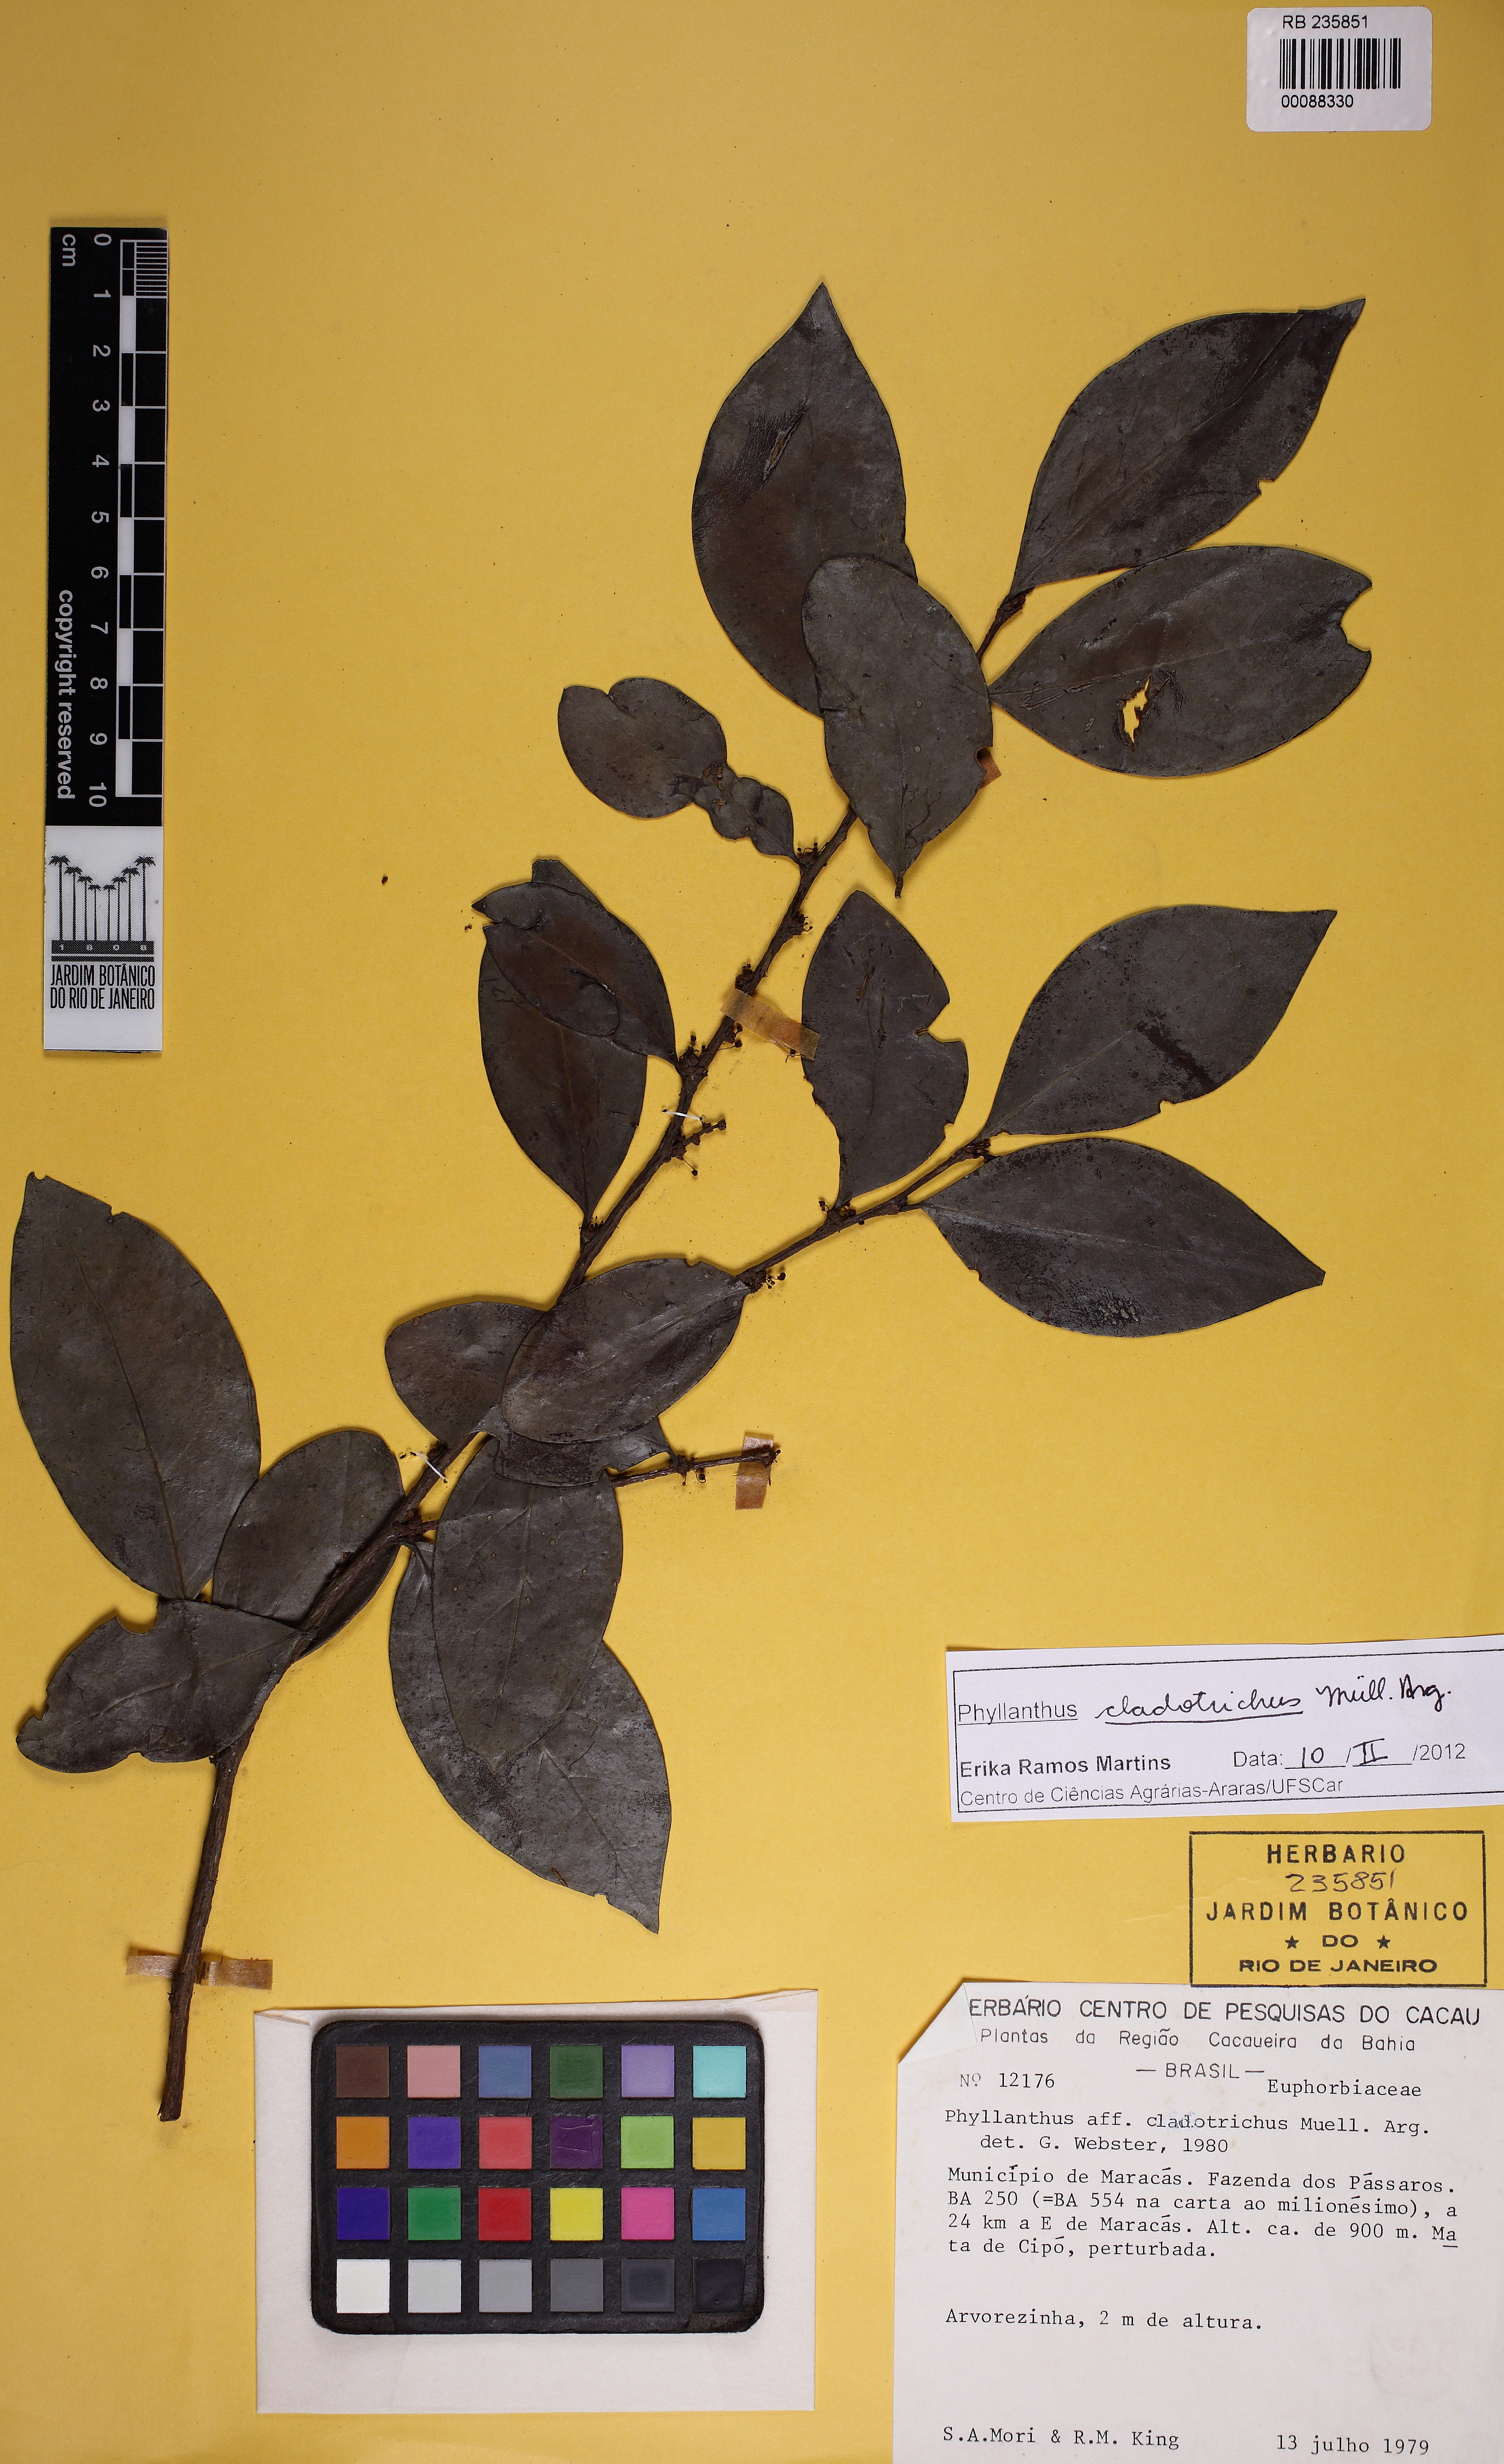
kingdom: Plantae
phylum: Tracheophyta
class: Magnoliopsida
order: Malpighiales
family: Phyllanthaceae
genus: Phyllanthus
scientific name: Phyllanthus cladotrichus
